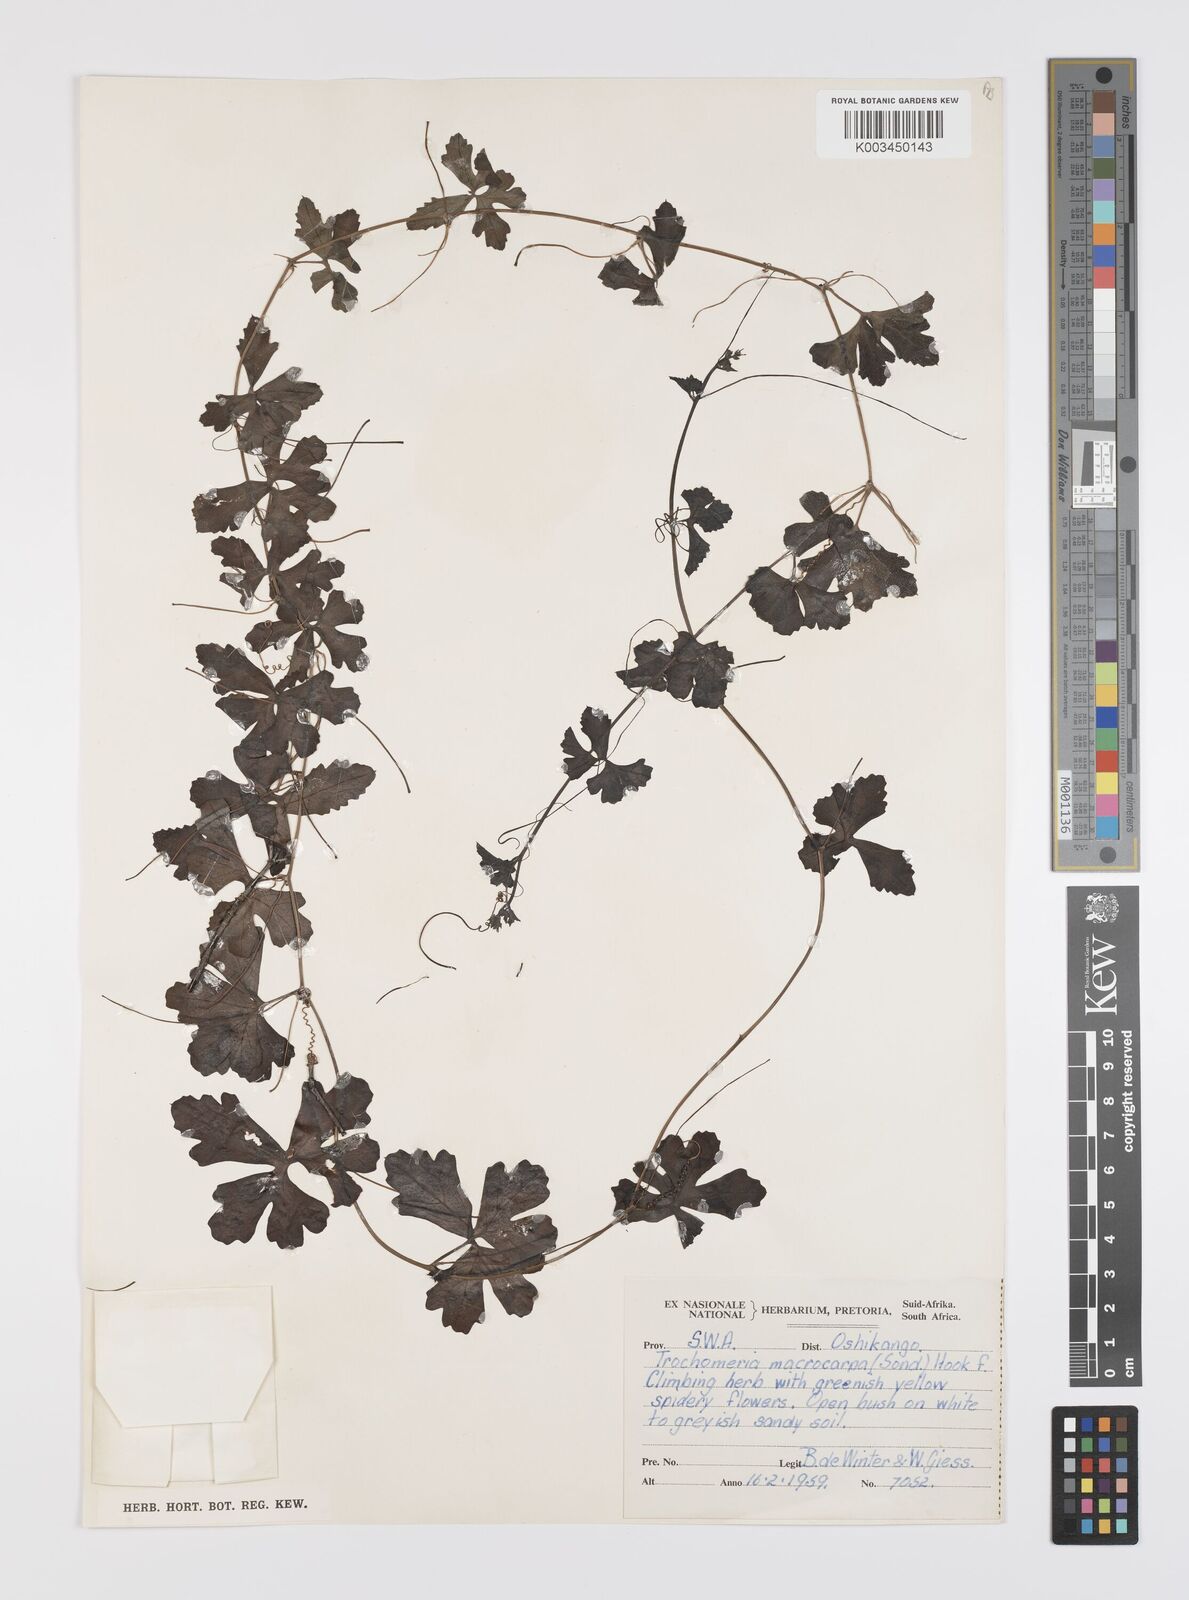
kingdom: Plantae
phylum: Tracheophyta
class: Magnoliopsida
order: Cucurbitales
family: Cucurbitaceae
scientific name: Cucurbitaceae
